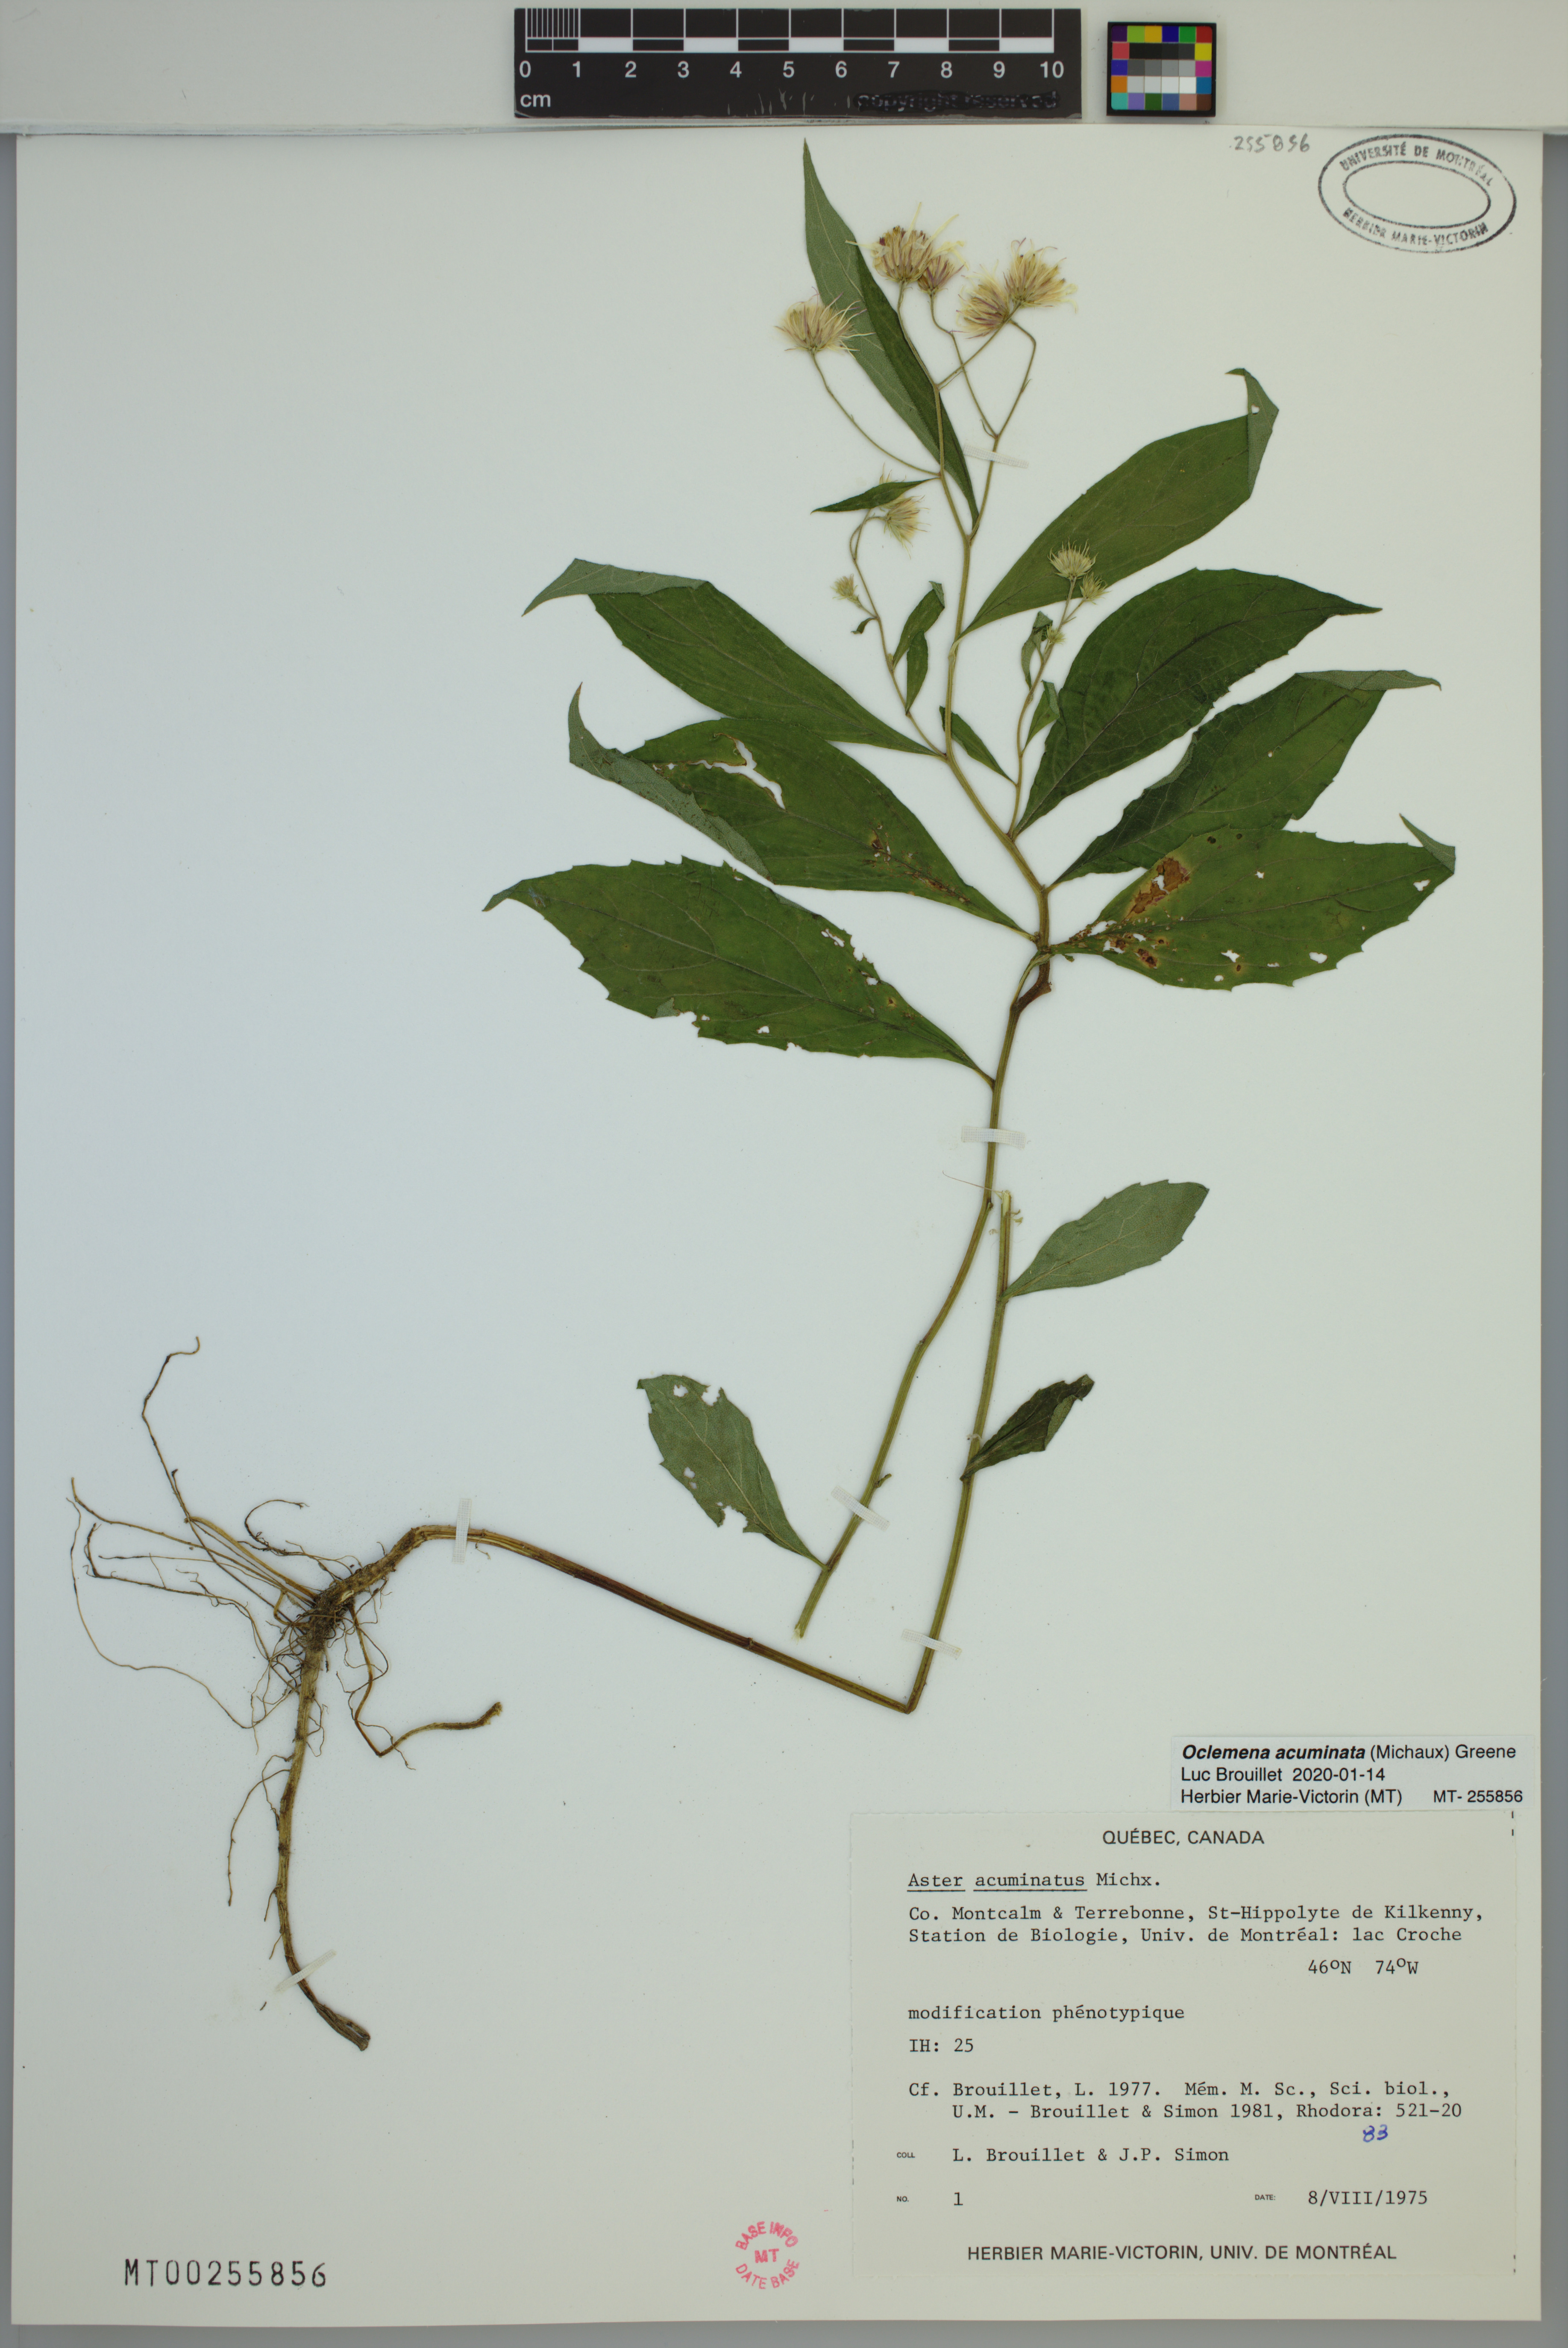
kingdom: Plantae
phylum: Tracheophyta
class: Magnoliopsida
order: Asterales
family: Asteraceae
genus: Oclemena
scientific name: Oclemena acuminata
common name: Mountain aster
